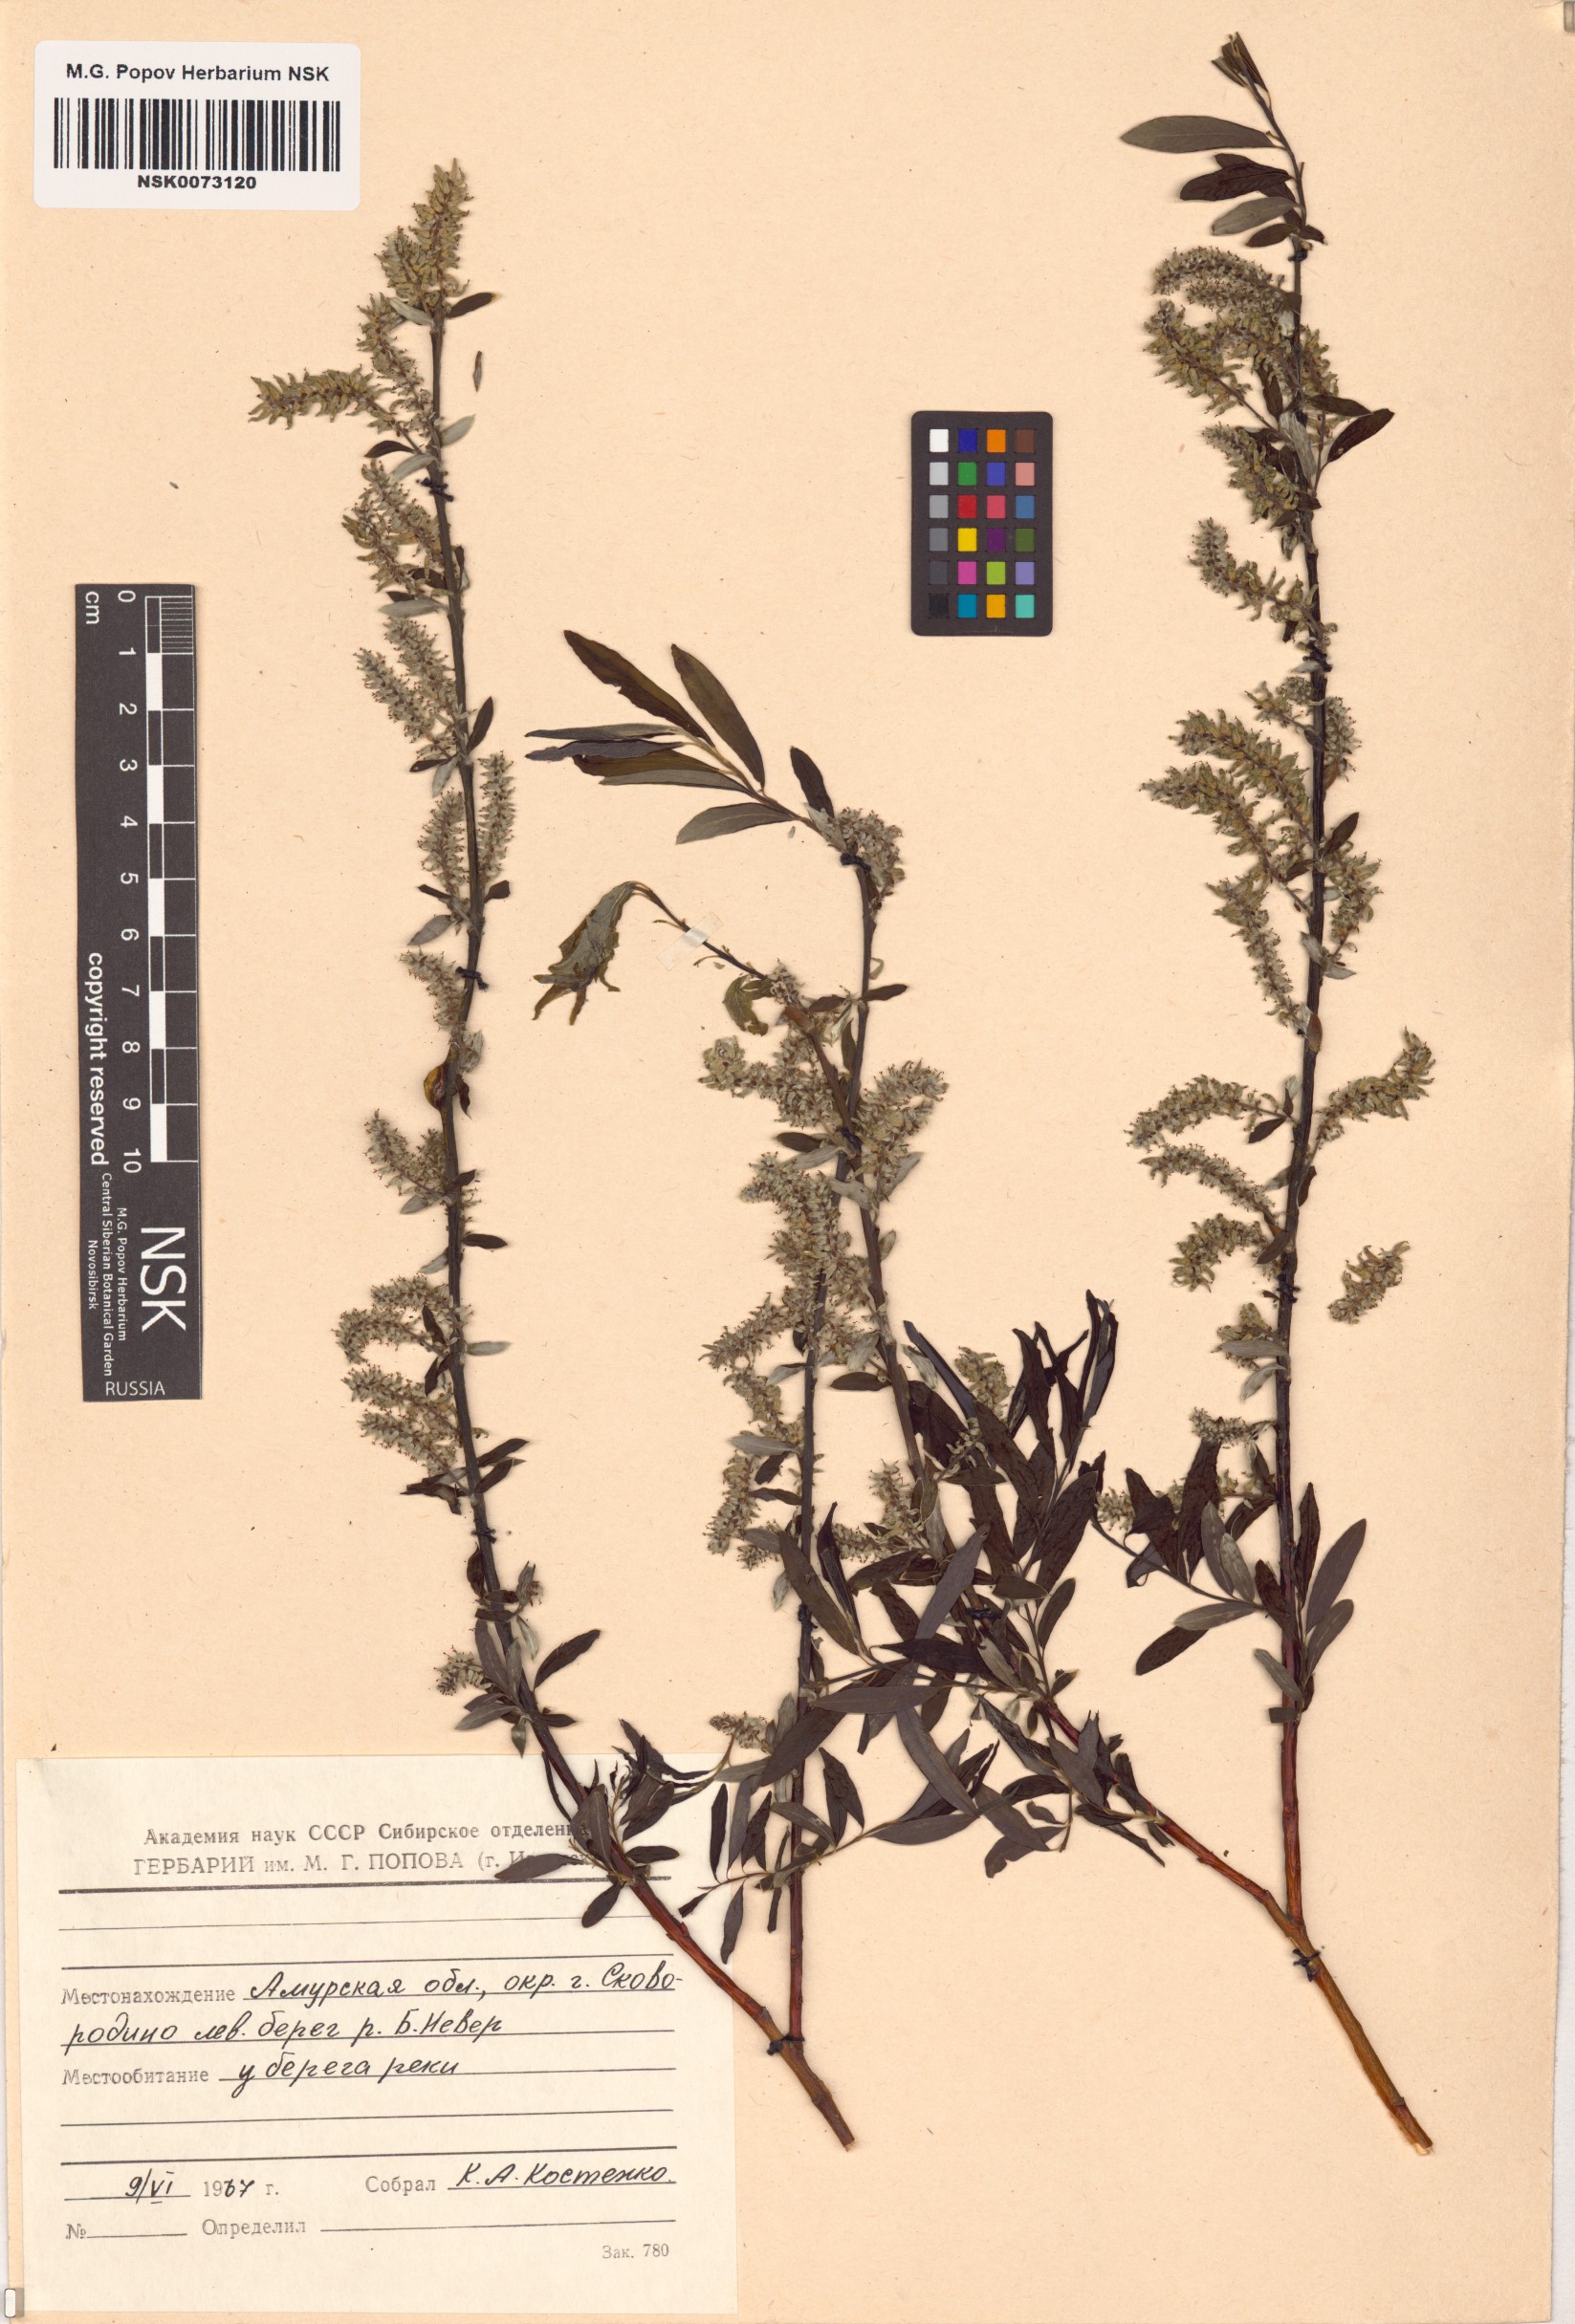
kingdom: Plantae
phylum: Tracheophyta
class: Magnoliopsida
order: Malpighiales
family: Salicaceae
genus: Salix
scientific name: Salix
